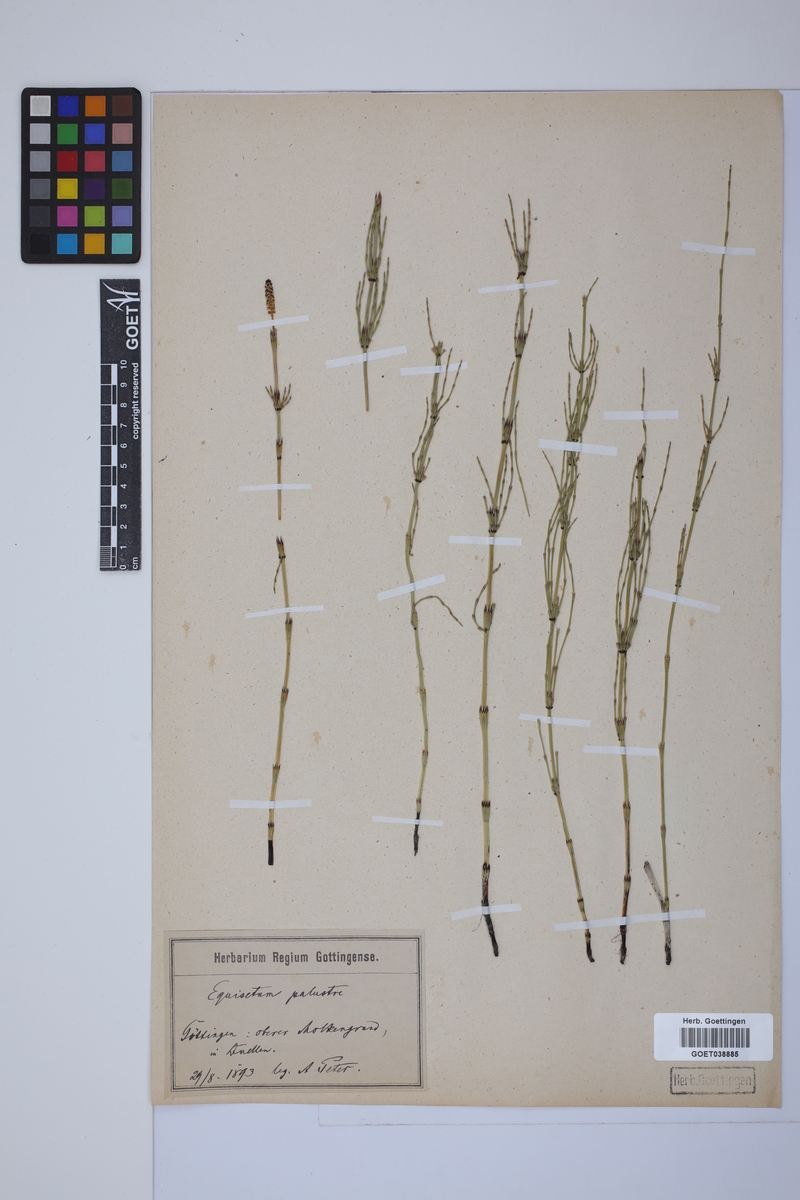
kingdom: Plantae
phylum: Tracheophyta
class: Polypodiopsida
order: Equisetales
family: Equisetaceae
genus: Equisetum
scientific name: Equisetum palustre
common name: Marsh horsetail
